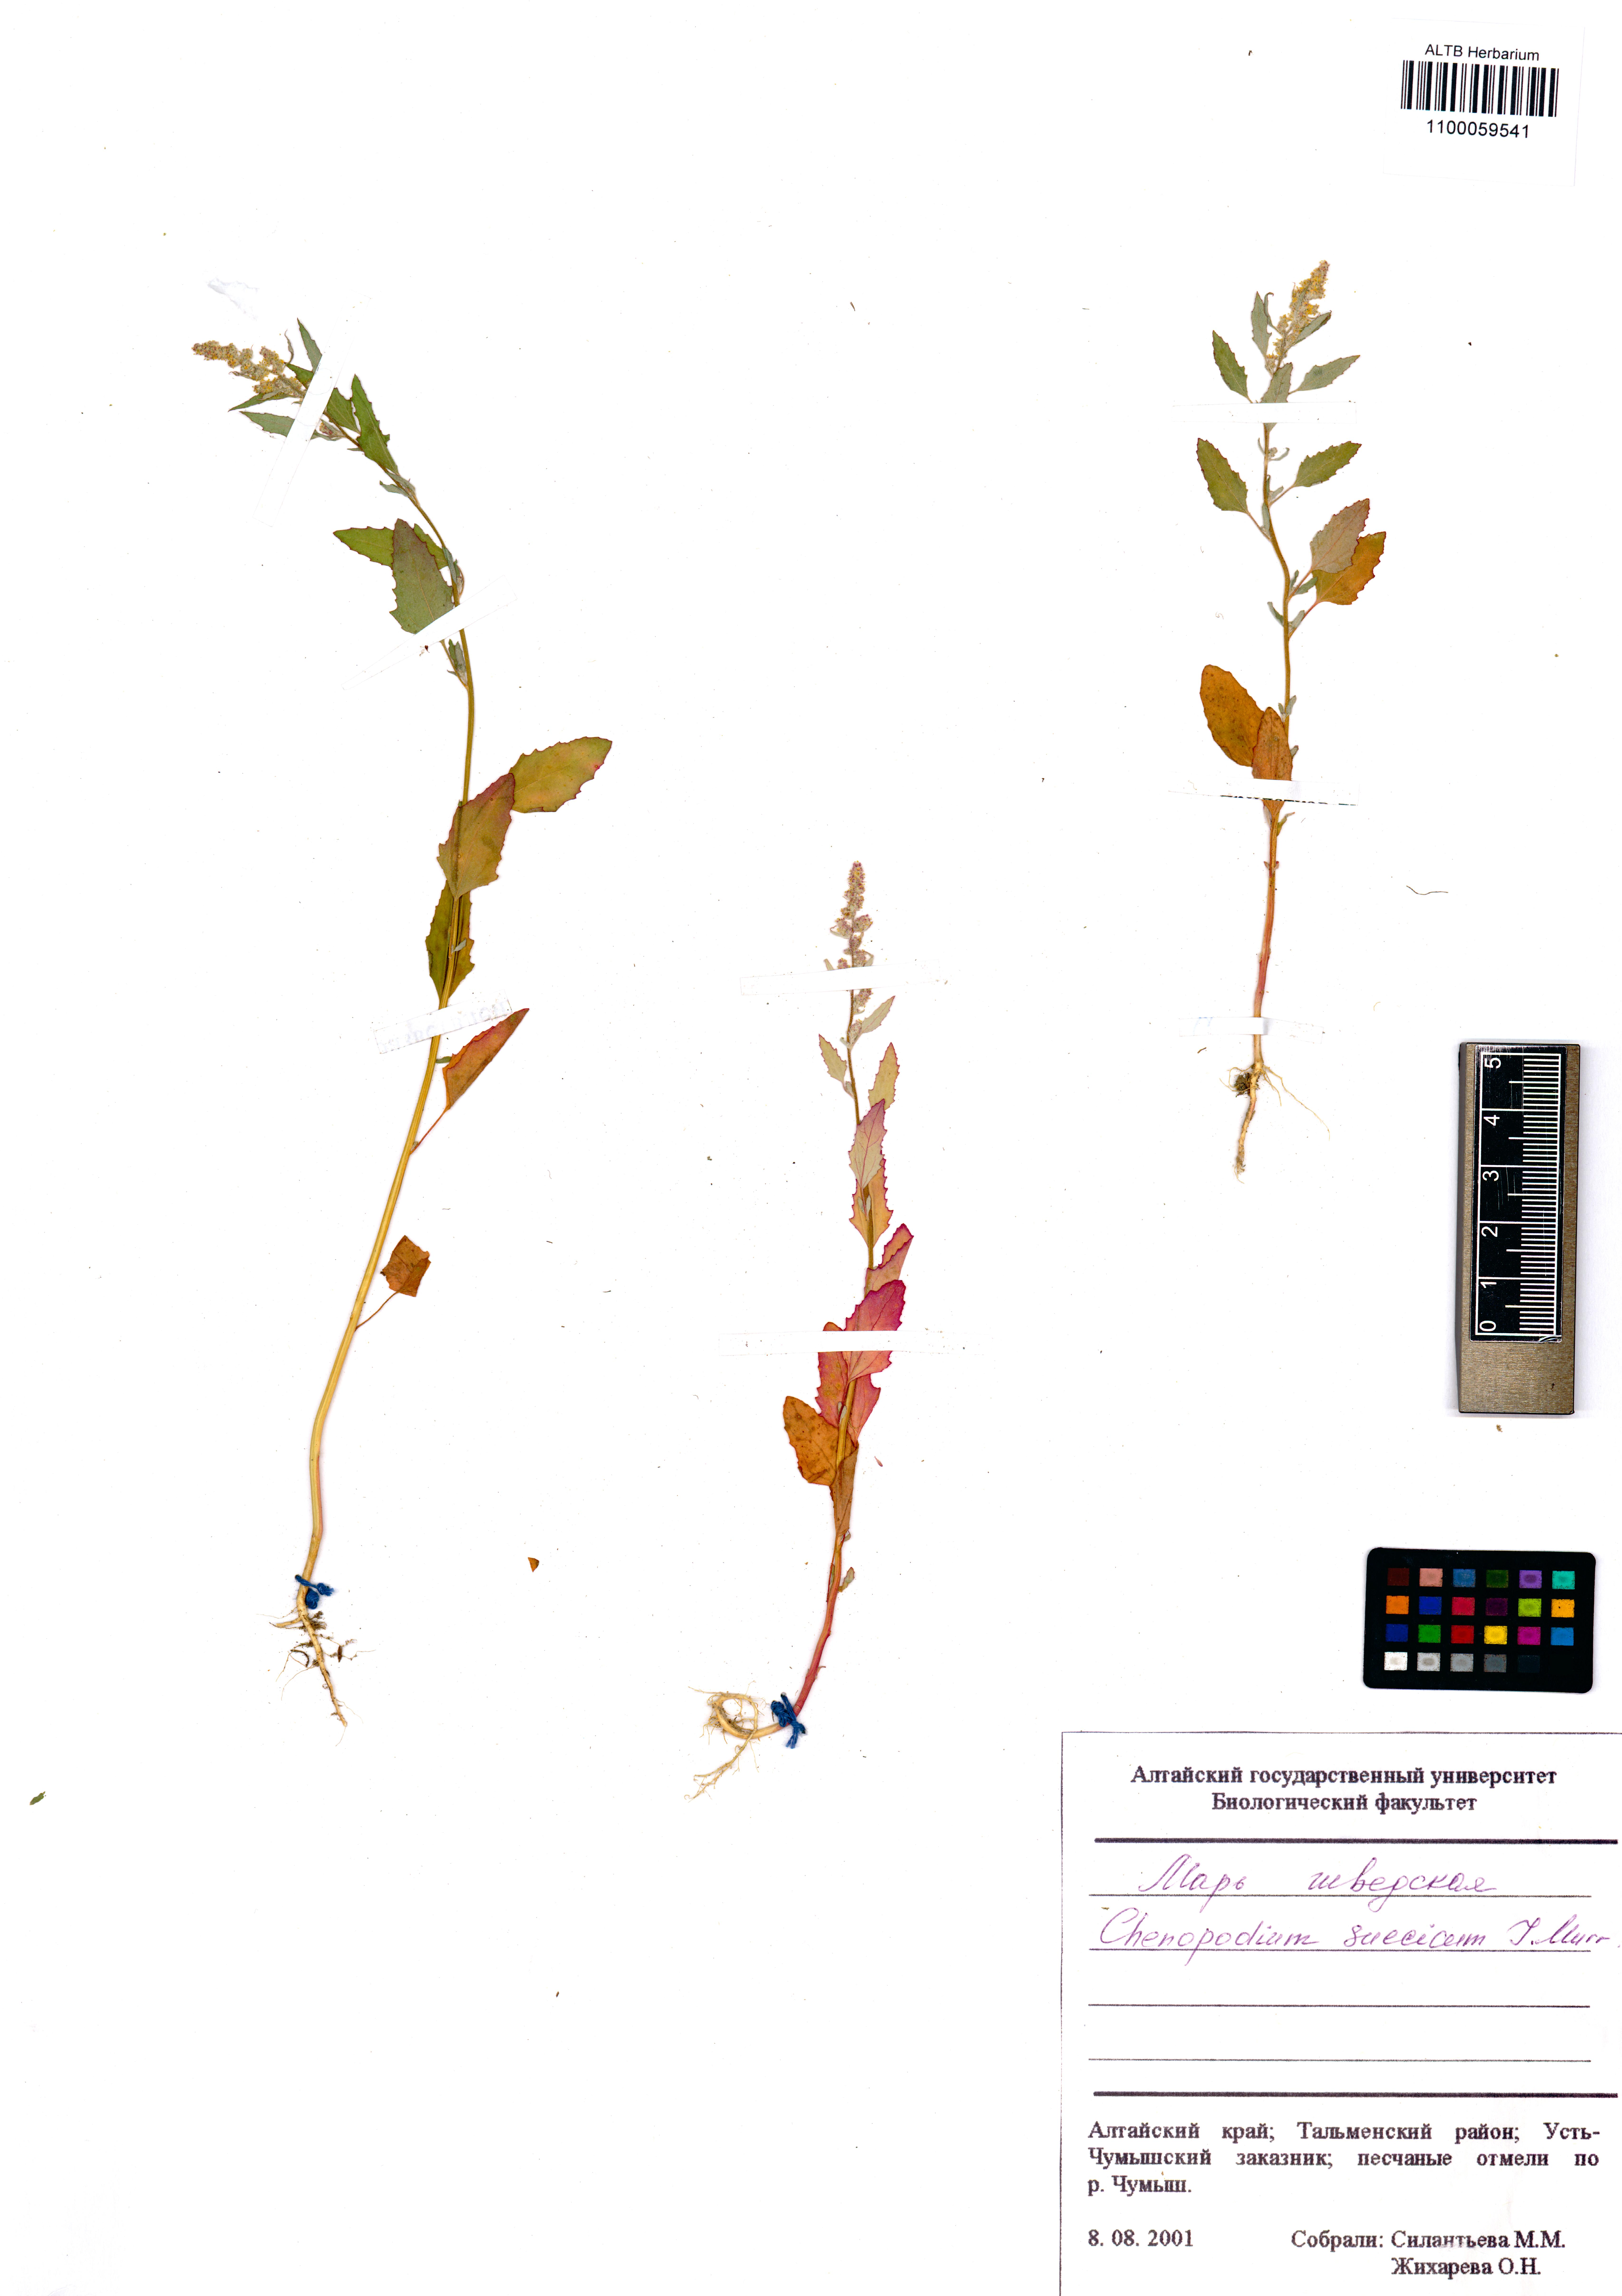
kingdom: Plantae
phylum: Tracheophyta
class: Magnoliopsida
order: Caryophyllales
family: Amaranthaceae
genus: Chenopodium
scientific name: Chenopodium suecicum
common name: Swedish goosefoot
